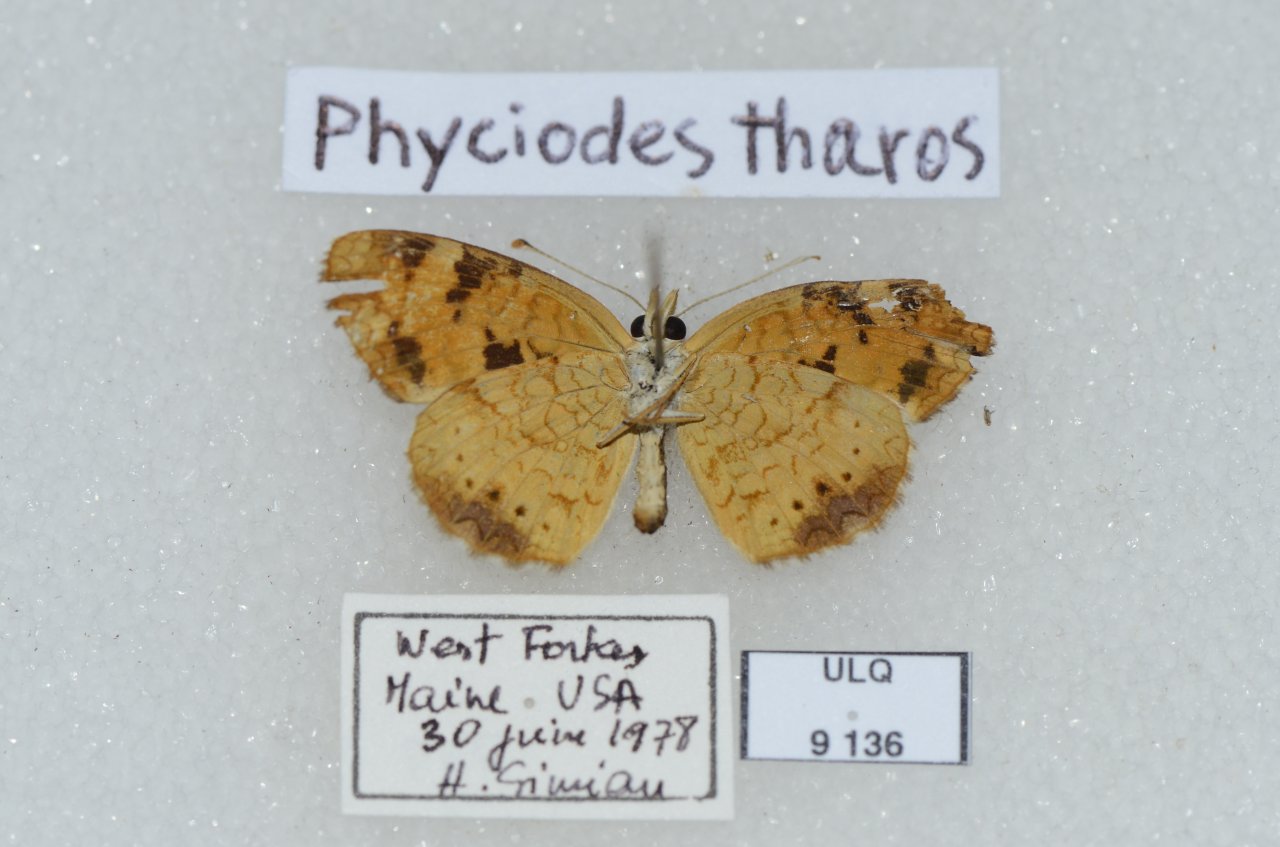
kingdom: Animalia
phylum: Arthropoda
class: Insecta
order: Lepidoptera
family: Nymphalidae
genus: Phyciodes
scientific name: Phyciodes tharos
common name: Pearl Crescent
